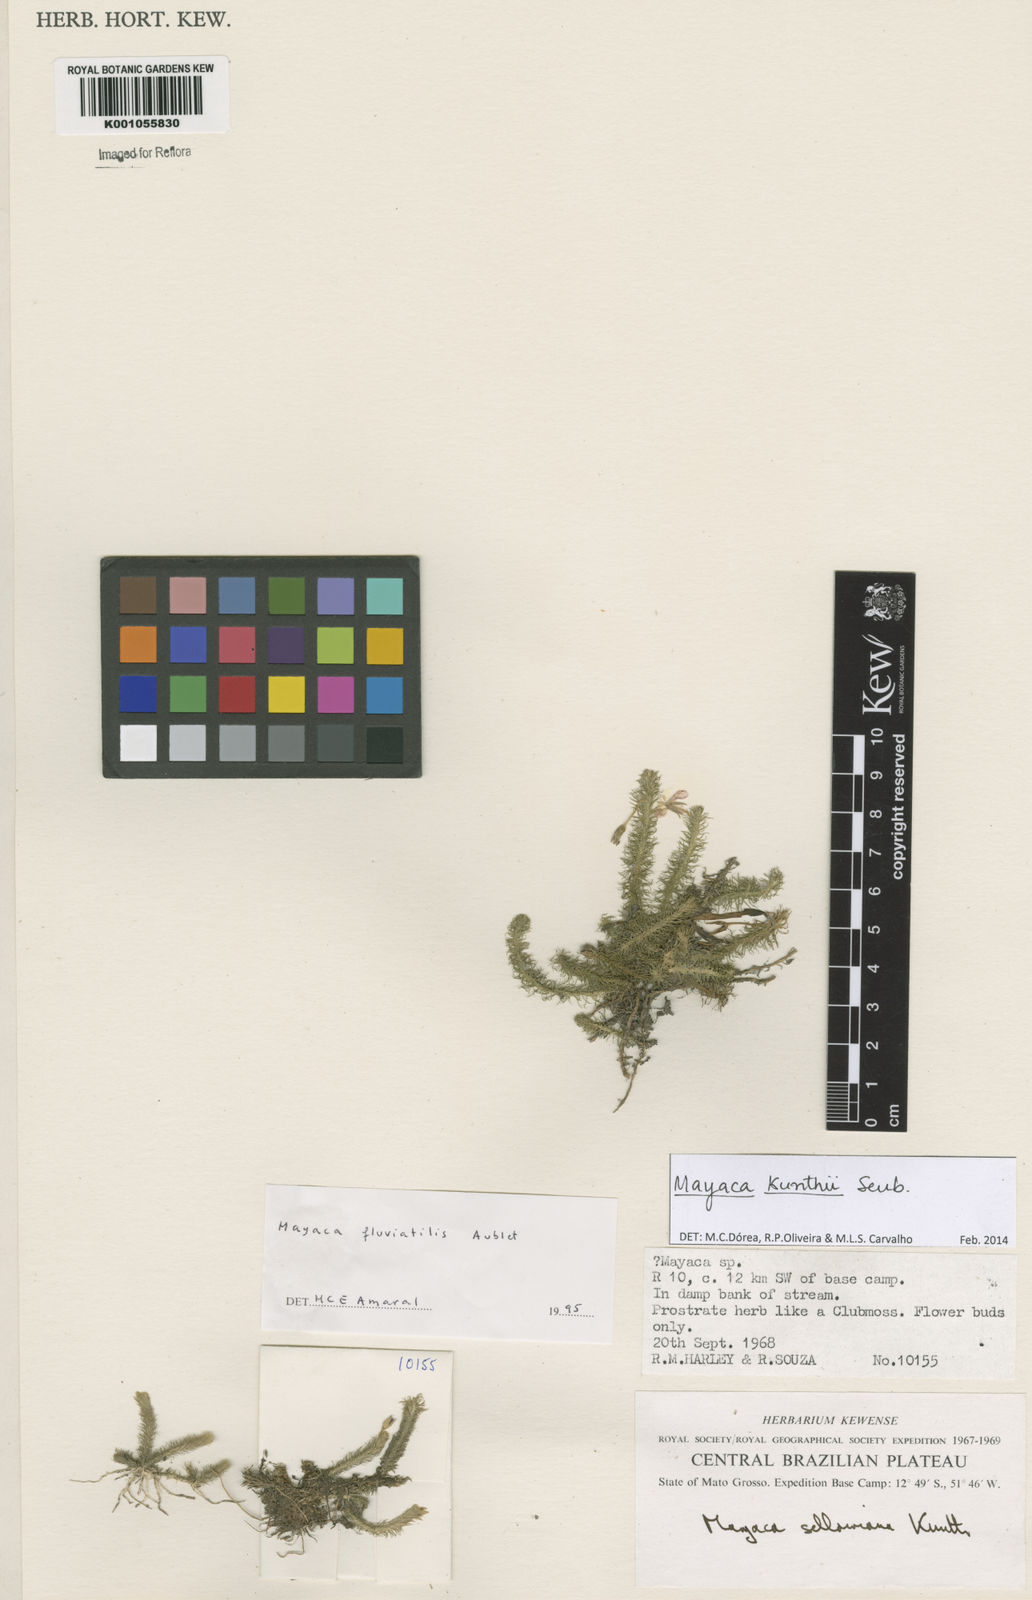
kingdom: Plantae
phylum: Tracheophyta
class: Liliopsida
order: Poales
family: Mayacaceae
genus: Mayaca
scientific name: Mayaca kunthii
